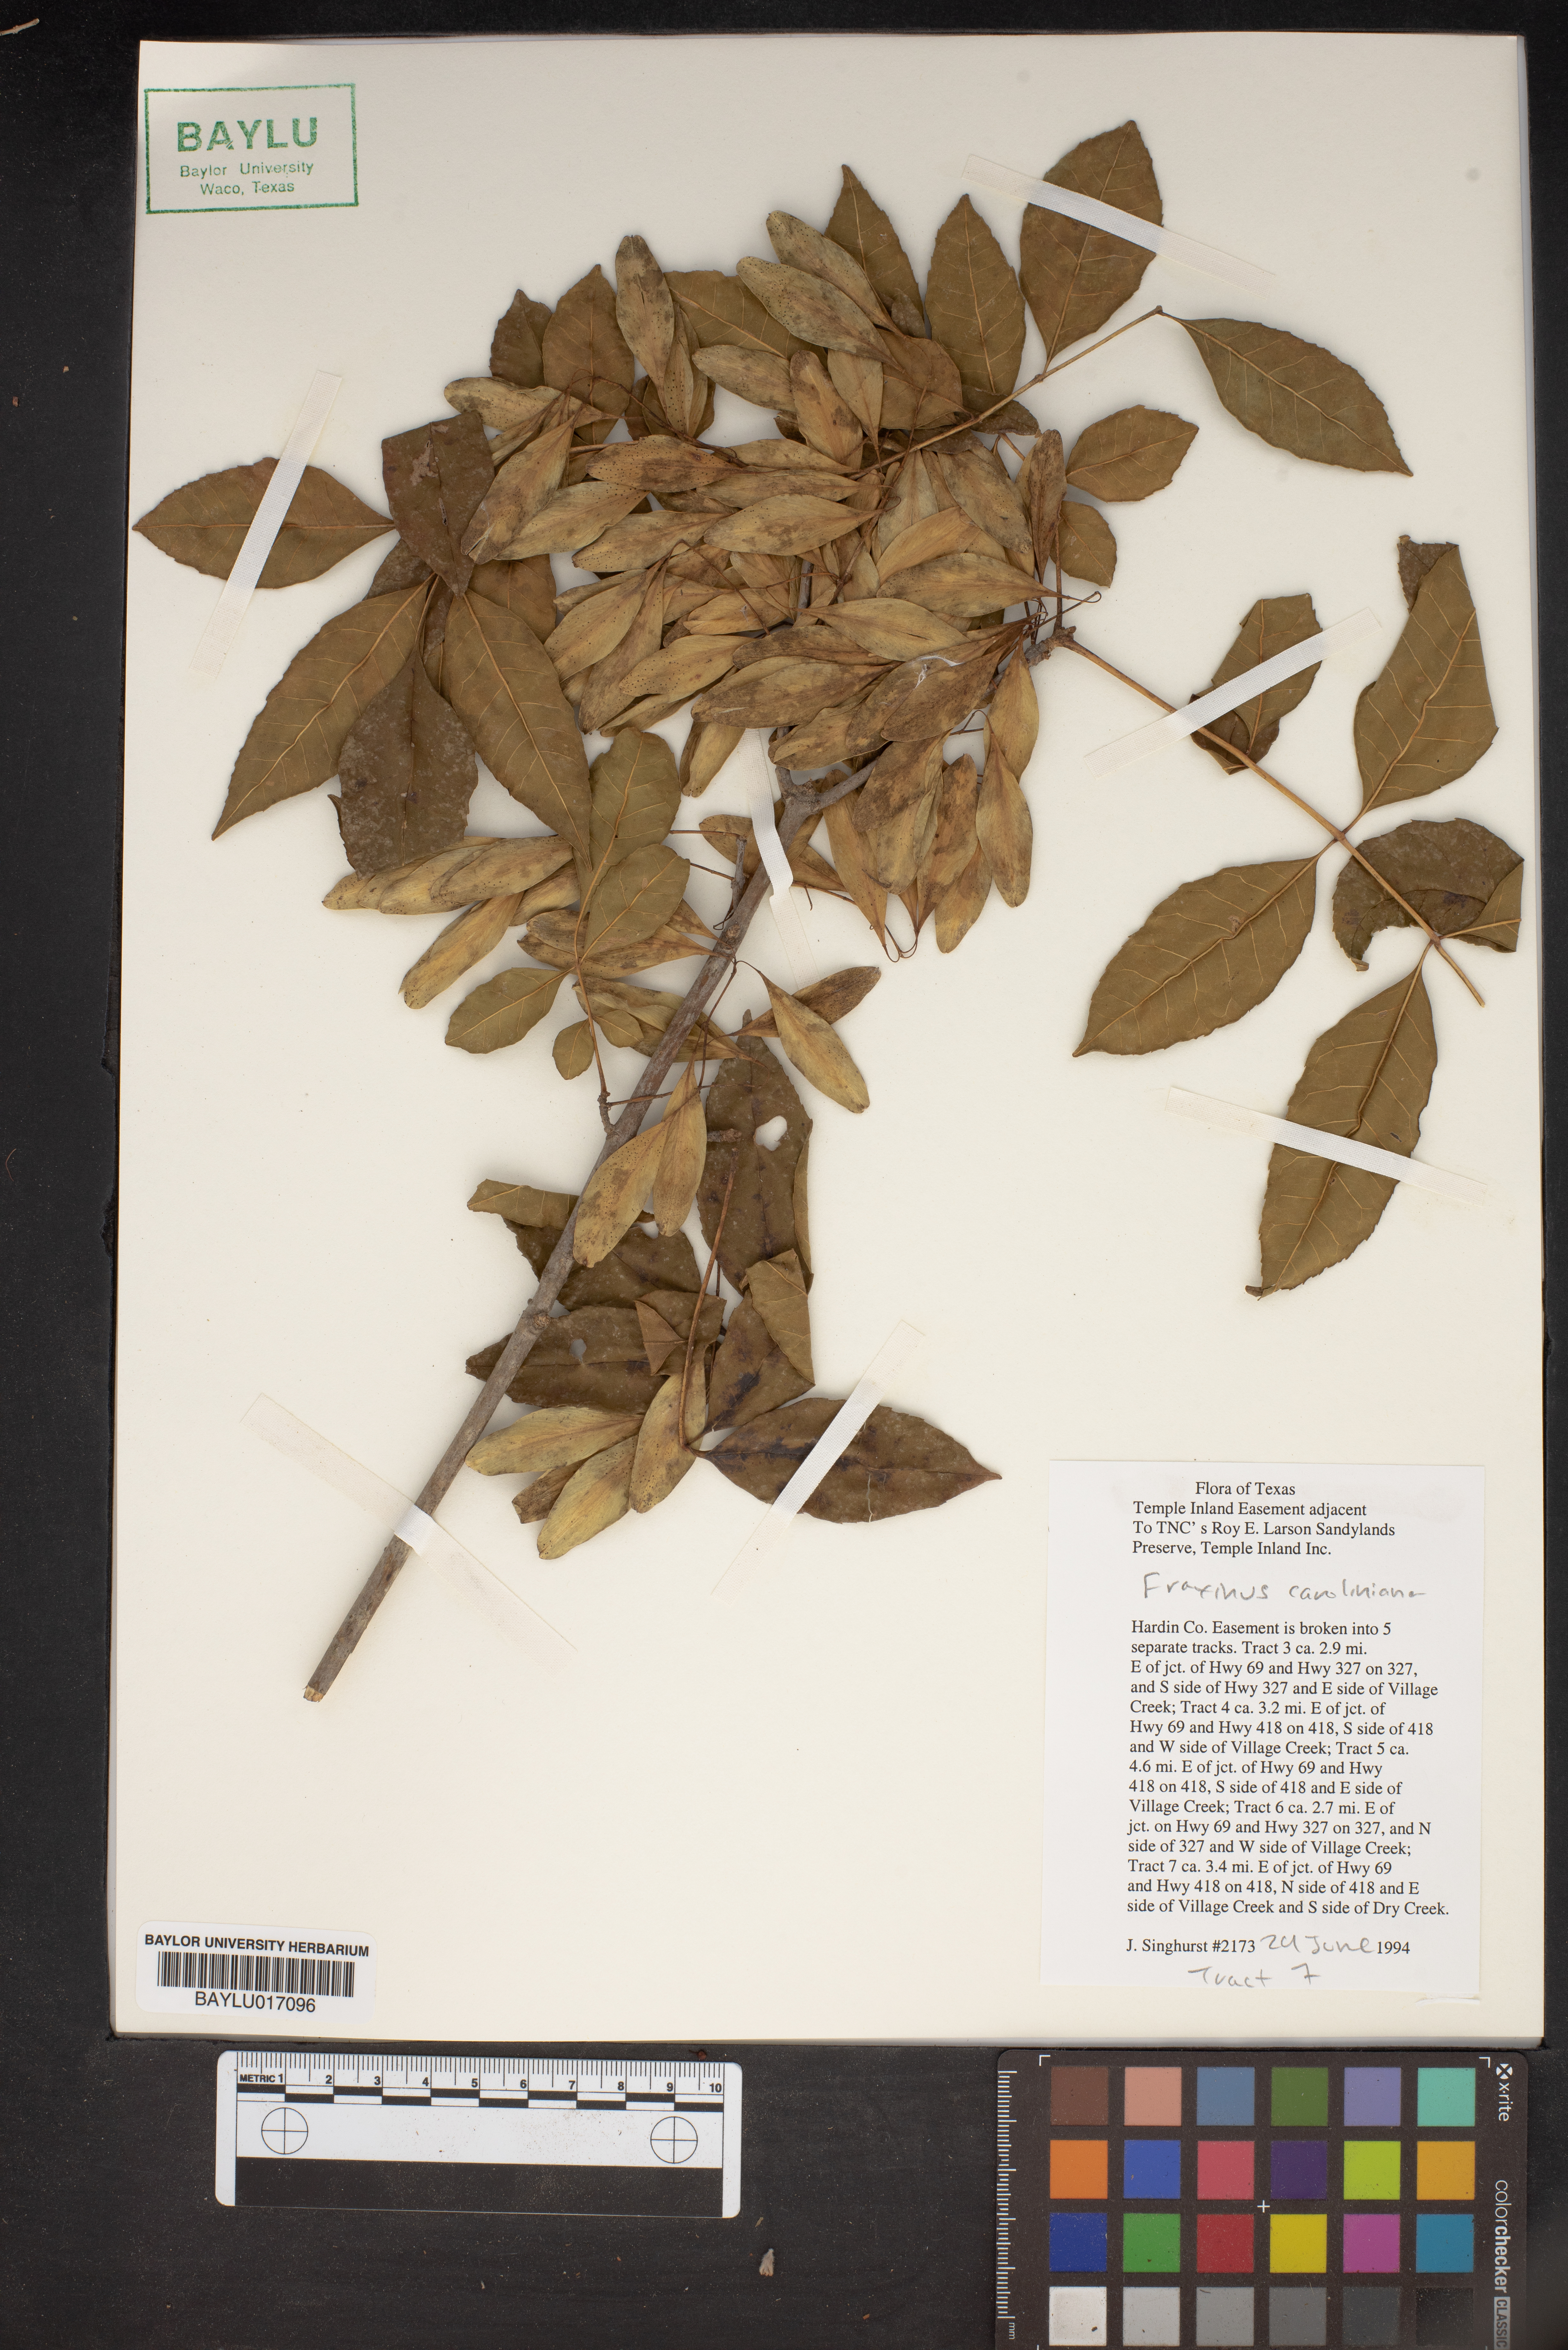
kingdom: Plantae
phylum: Tracheophyta
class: Magnoliopsida
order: Lamiales
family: Oleaceae
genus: Fraxinus
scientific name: Fraxinus caroliniana
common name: Carolina ash
